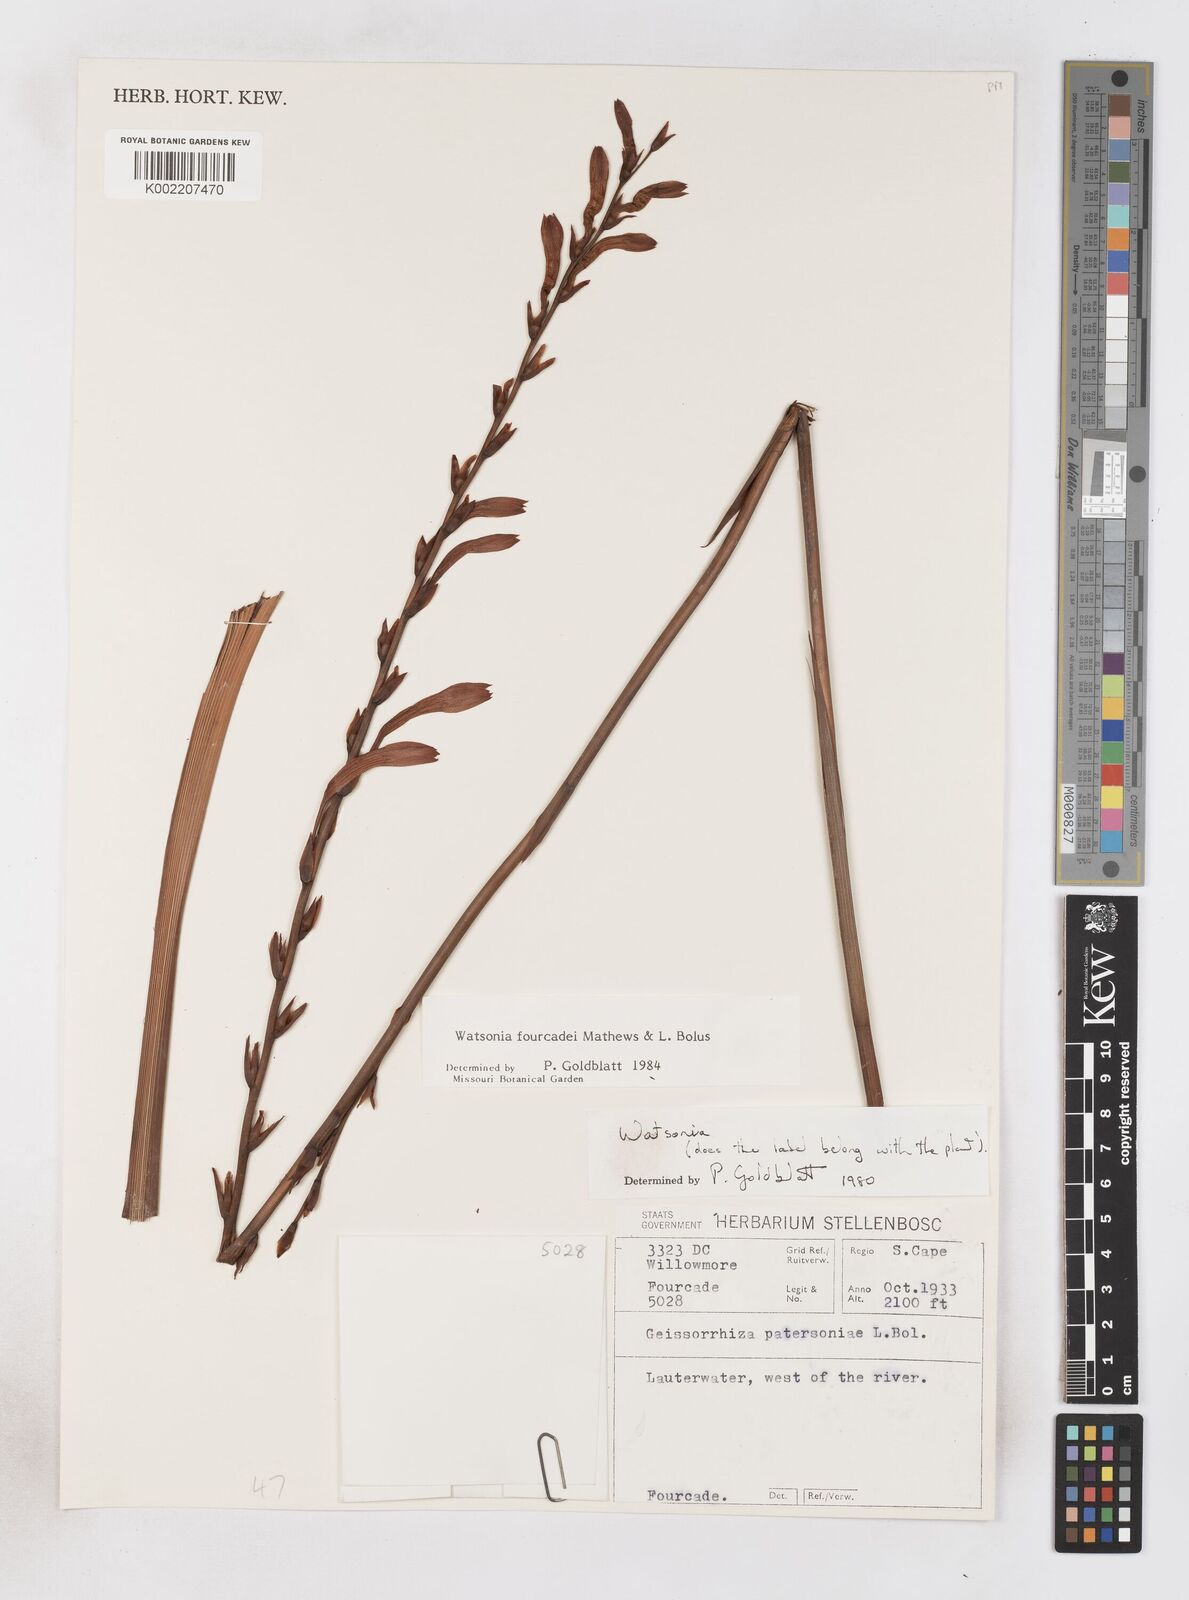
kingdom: Plantae
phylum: Tracheophyta
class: Liliopsida
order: Asparagales
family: Iridaceae
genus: Watsonia
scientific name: Watsonia fourcadei
